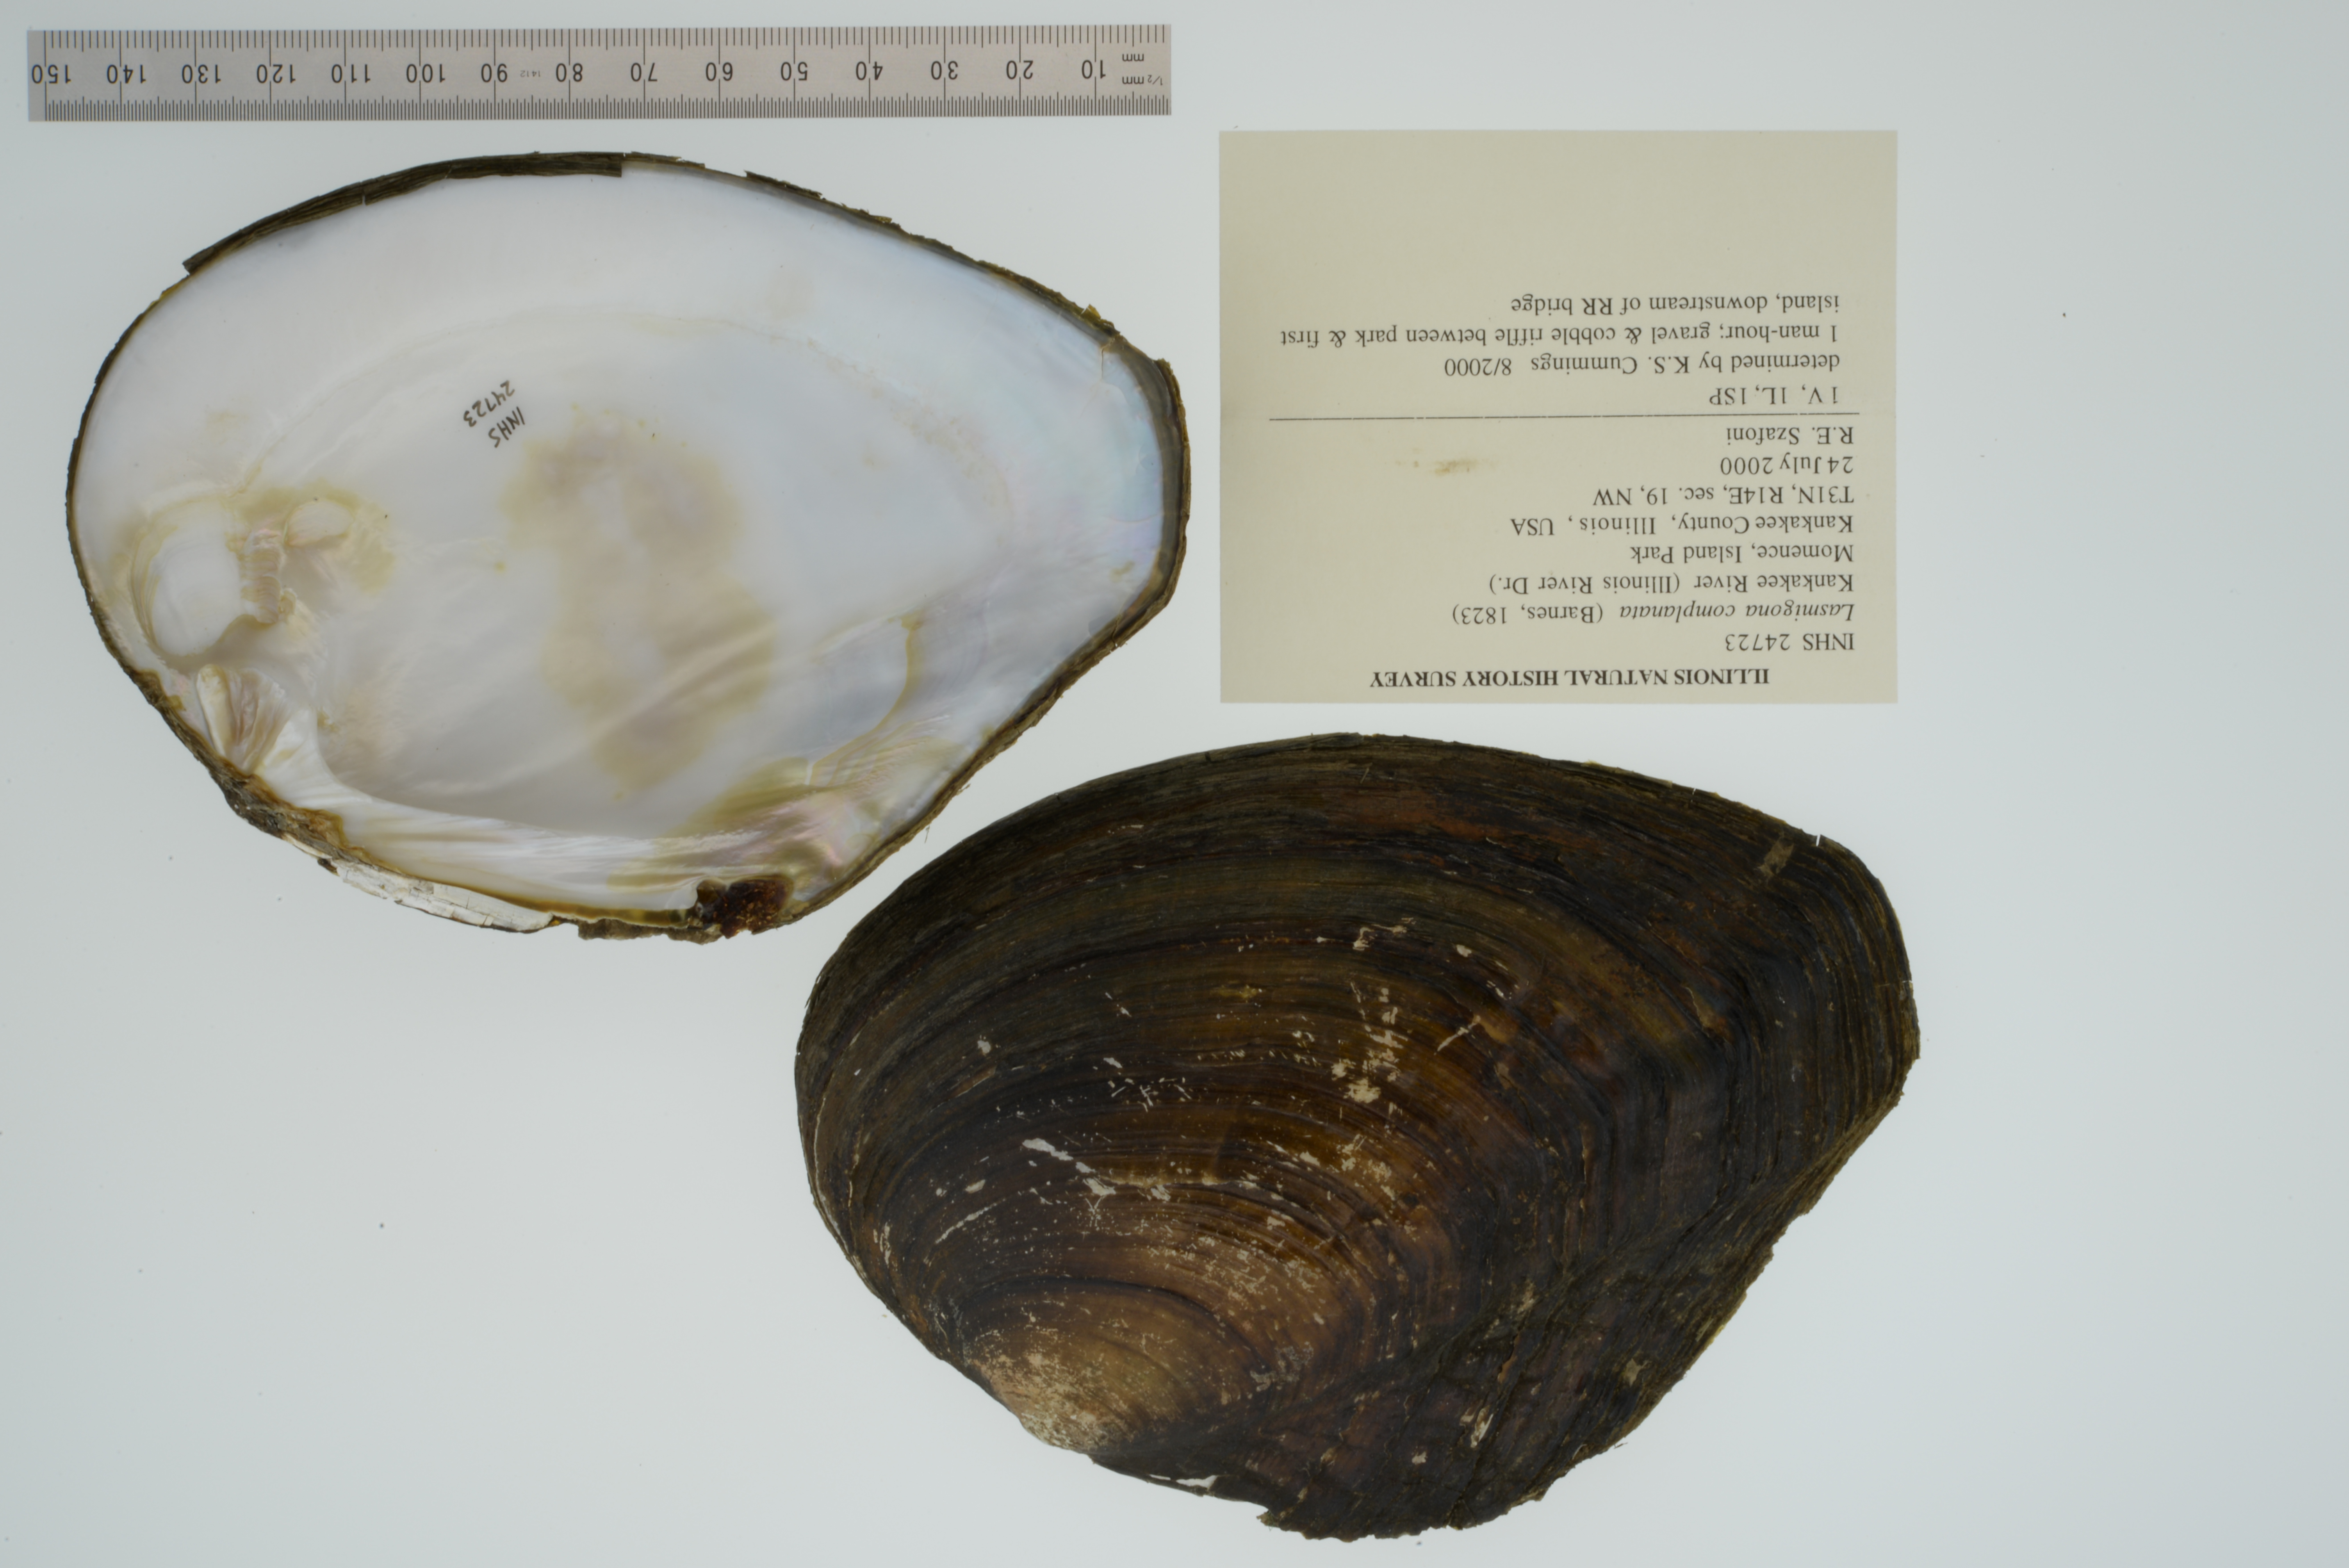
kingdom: Animalia
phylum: Mollusca
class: Bivalvia
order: Unionida
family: Unionidae
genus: Lasmigona
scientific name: Lasmigona complanata
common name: White heelsplitter
